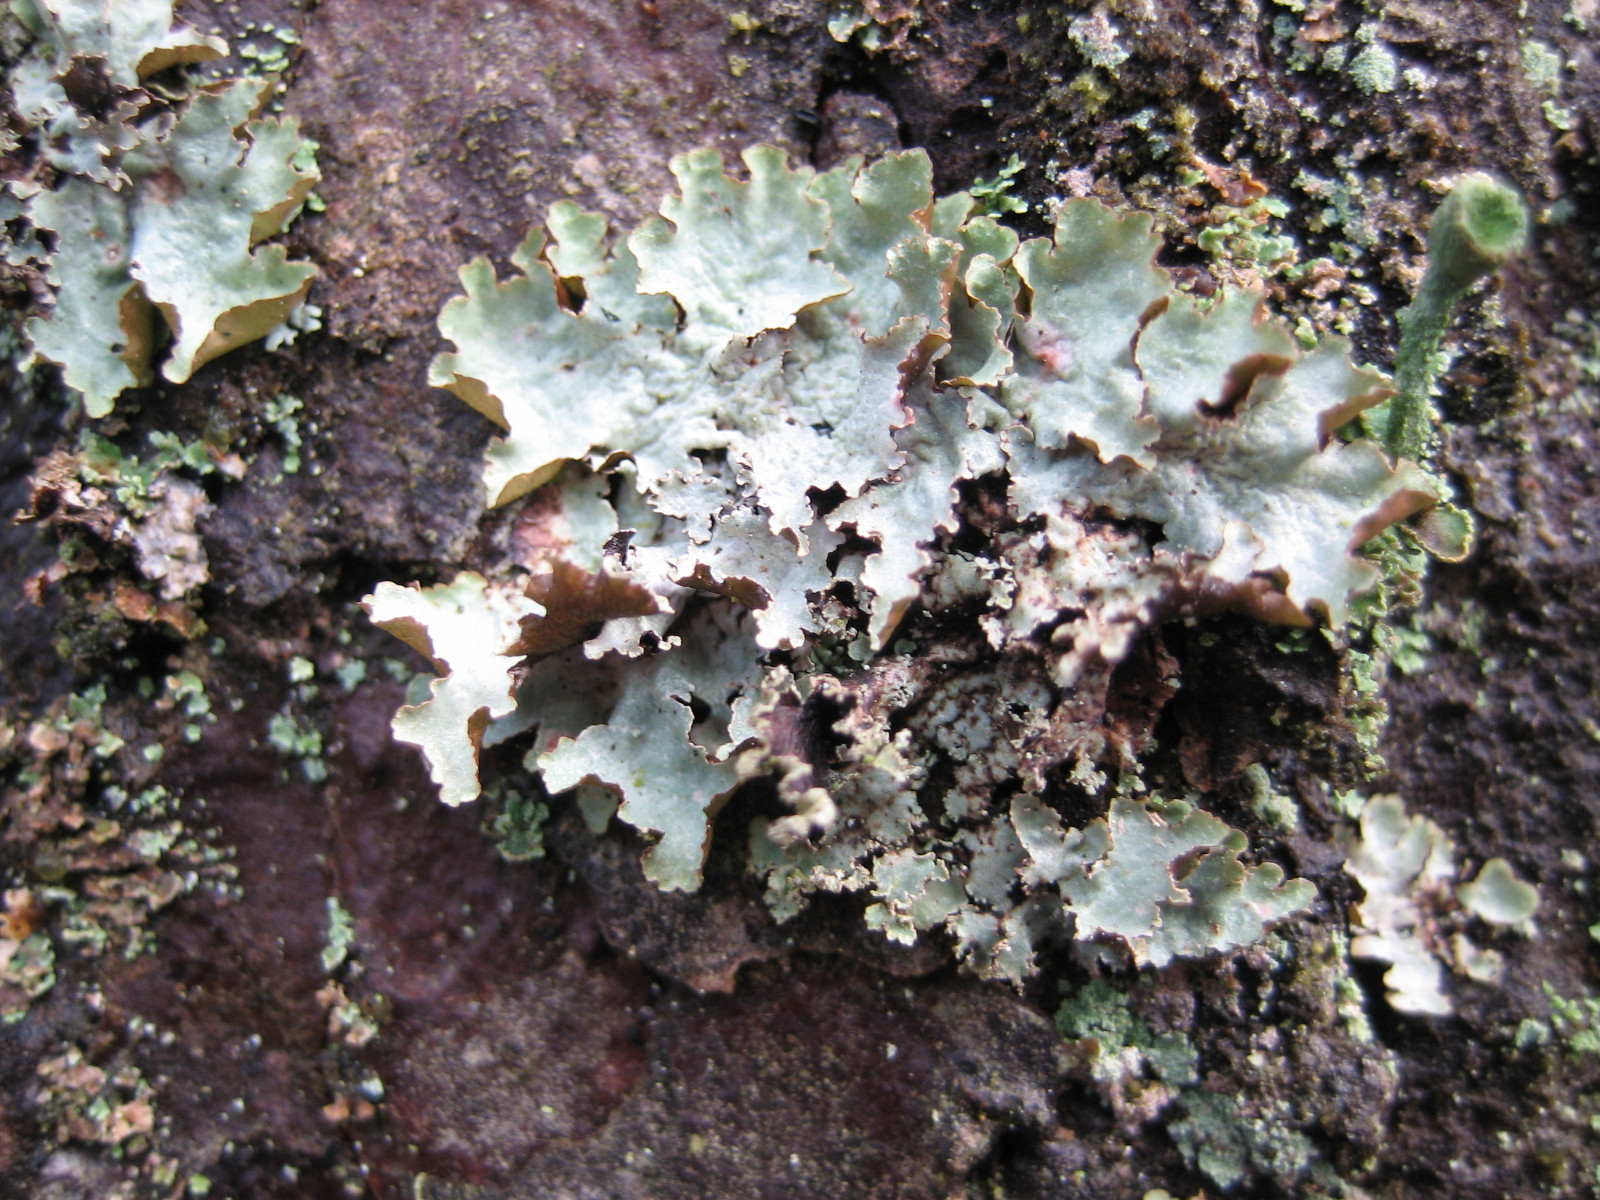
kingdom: Fungi
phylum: Ascomycota
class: Lecanoromycetes
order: Lecanorales
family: Parmeliaceae
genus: Platismatia
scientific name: Platismatia glauca
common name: blågrå papirlav
